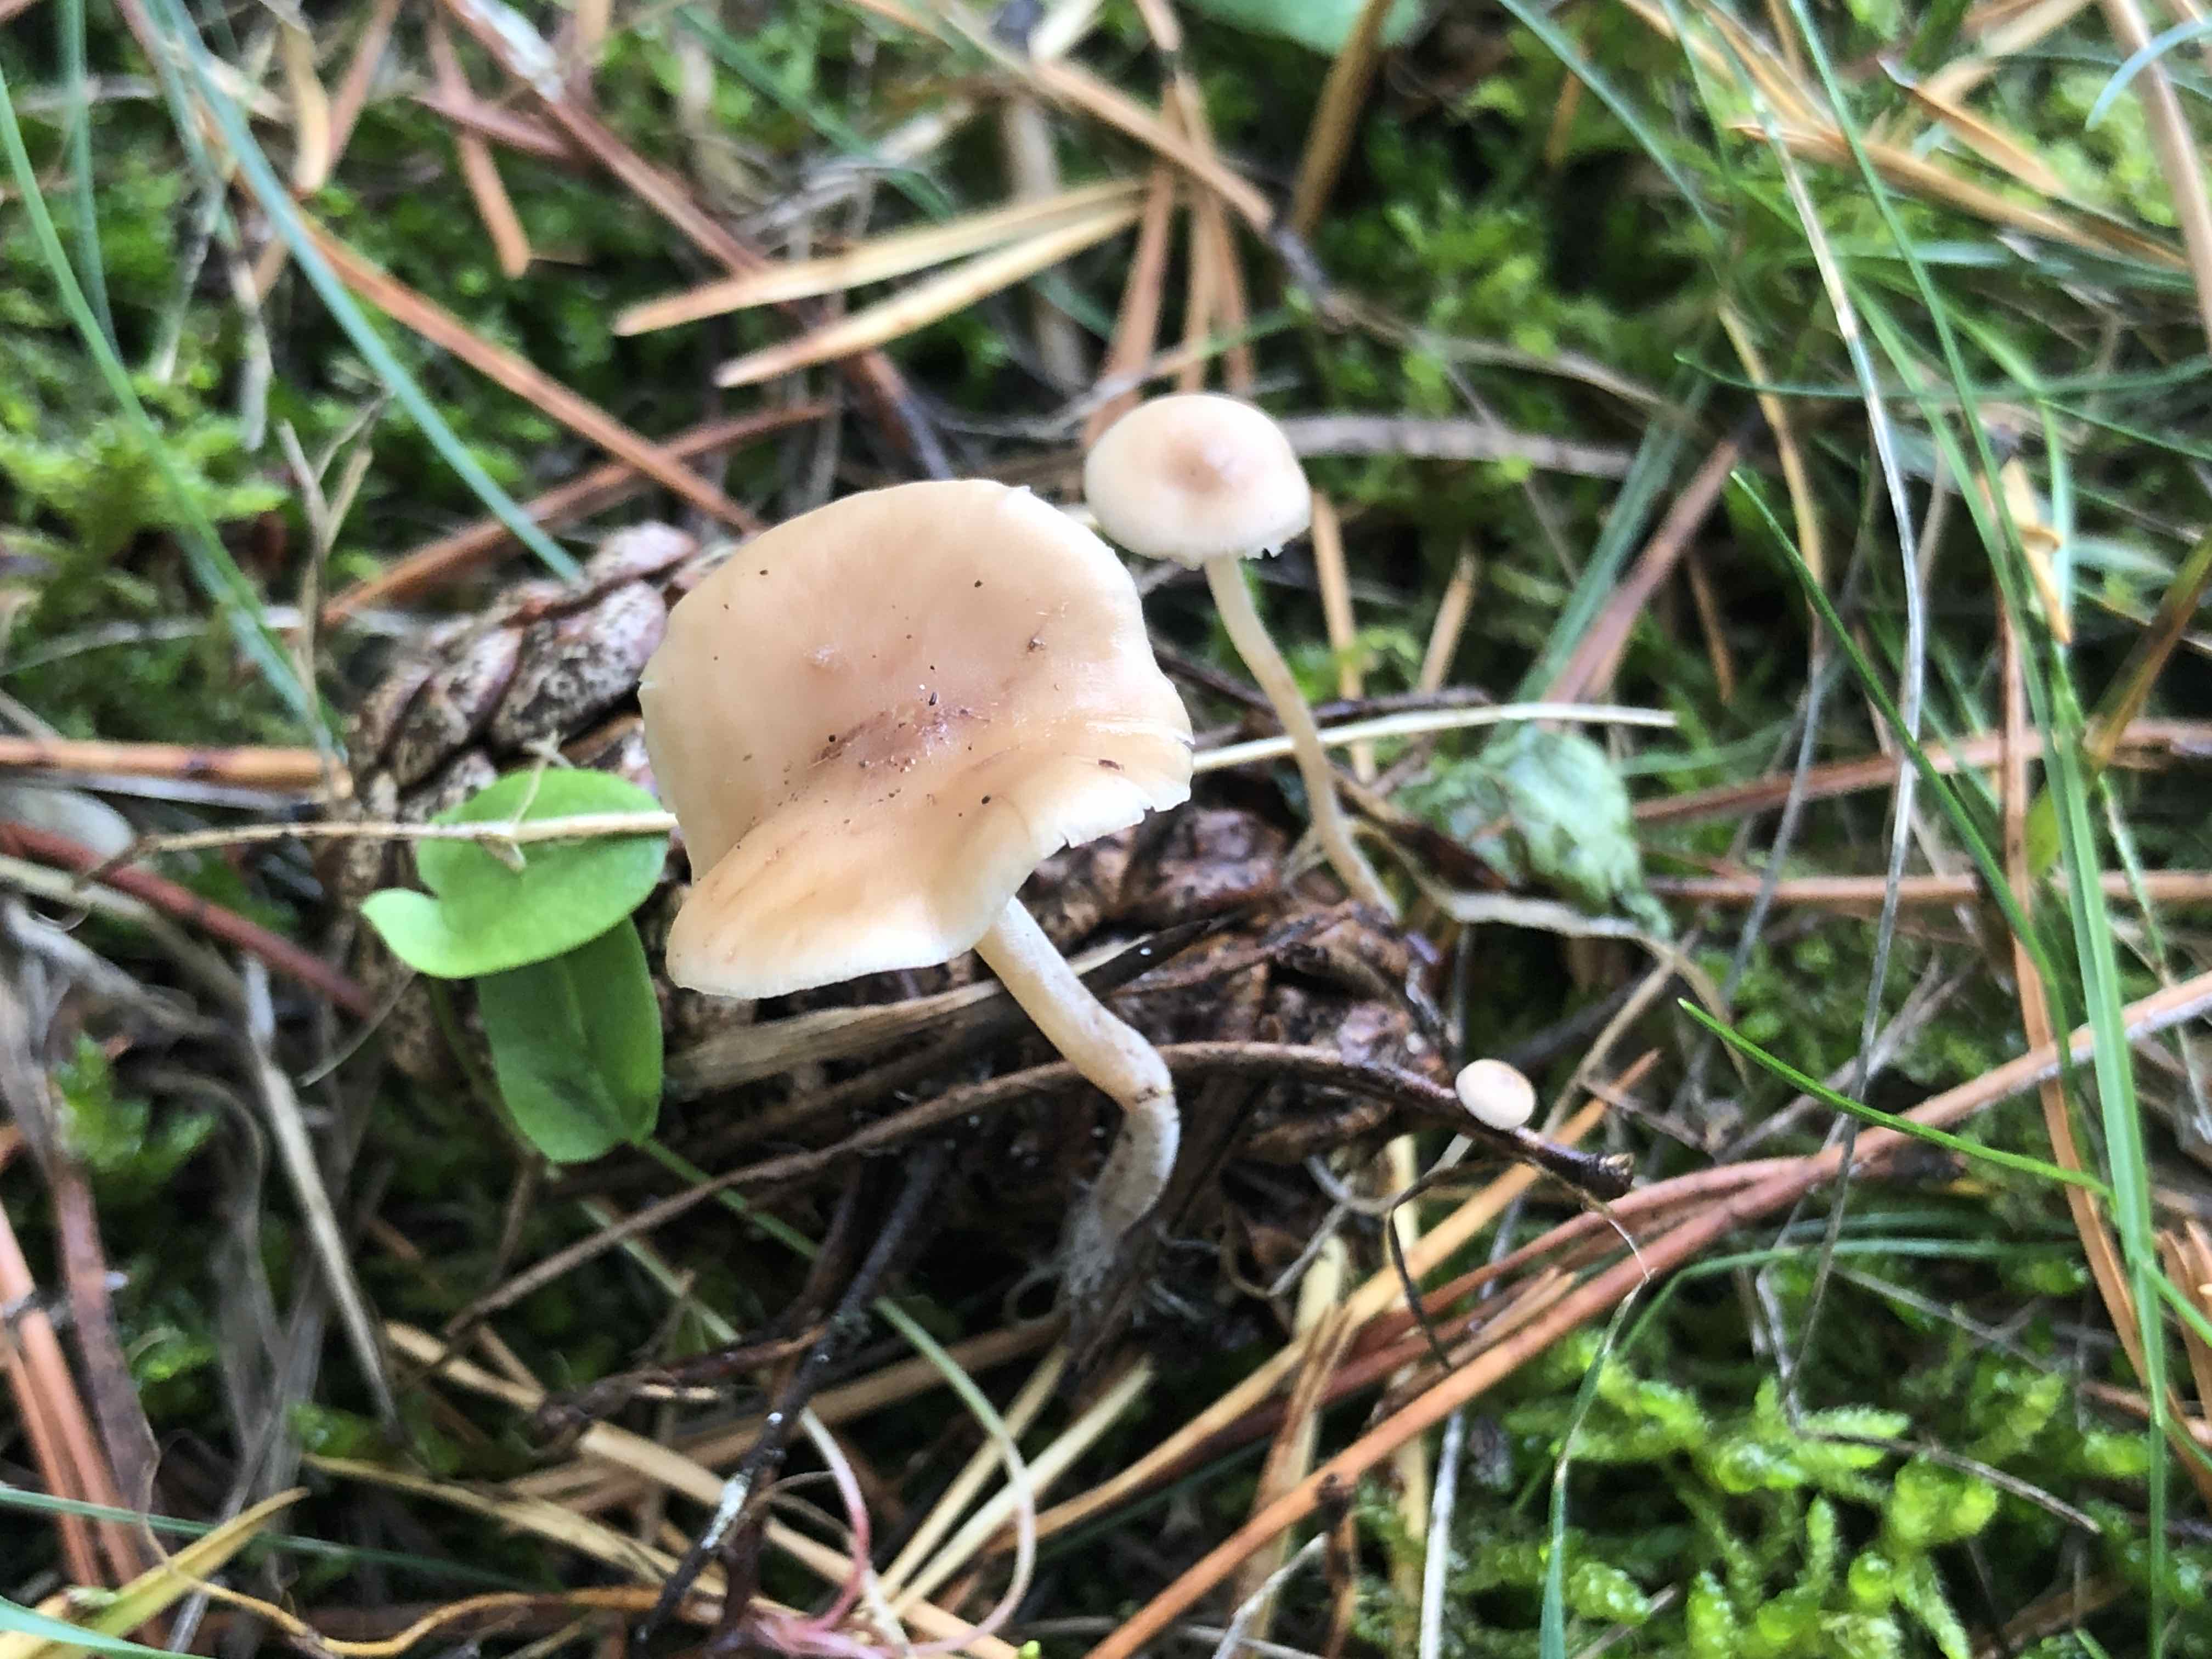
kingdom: Fungi
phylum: Basidiomycota
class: Agaricomycetes
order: Agaricales
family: Marasmiaceae
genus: Baeospora
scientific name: Baeospora myosura
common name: koglebruskhat
